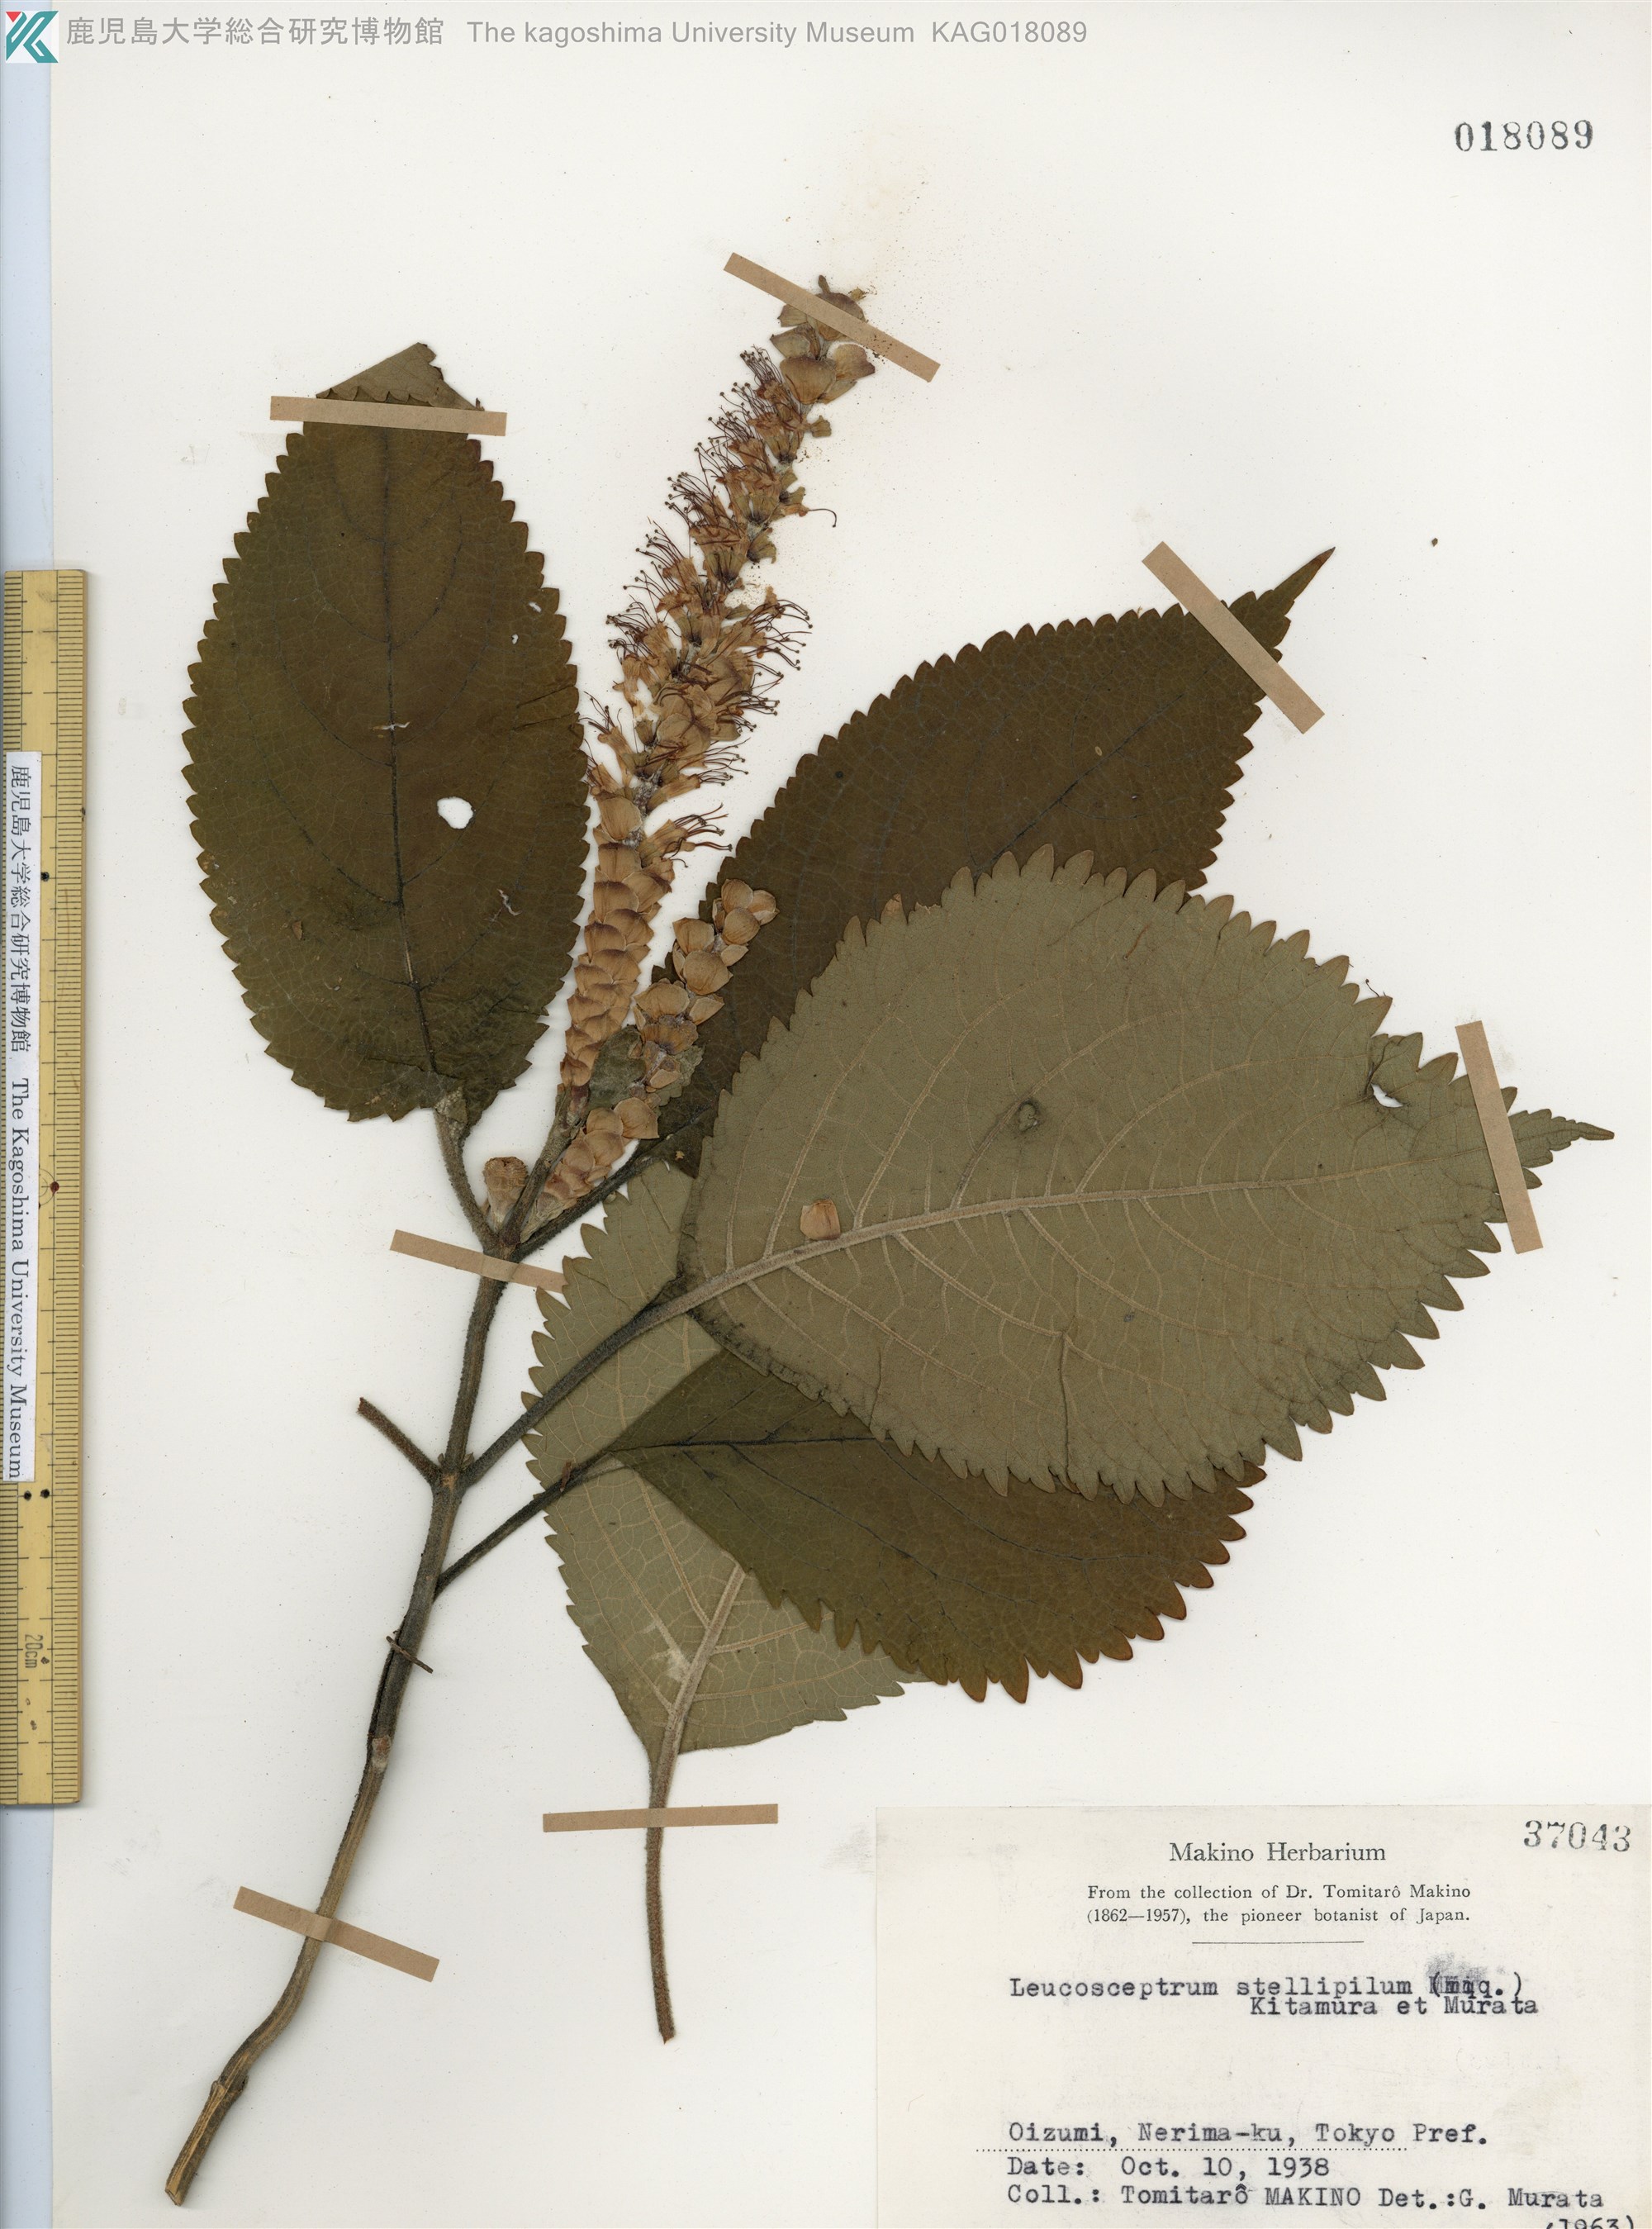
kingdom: Plantae
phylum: Tracheophyta
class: Magnoliopsida
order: Lamiales
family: Lamiaceae
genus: Comanthosphace
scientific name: Comanthosphace stellipila
